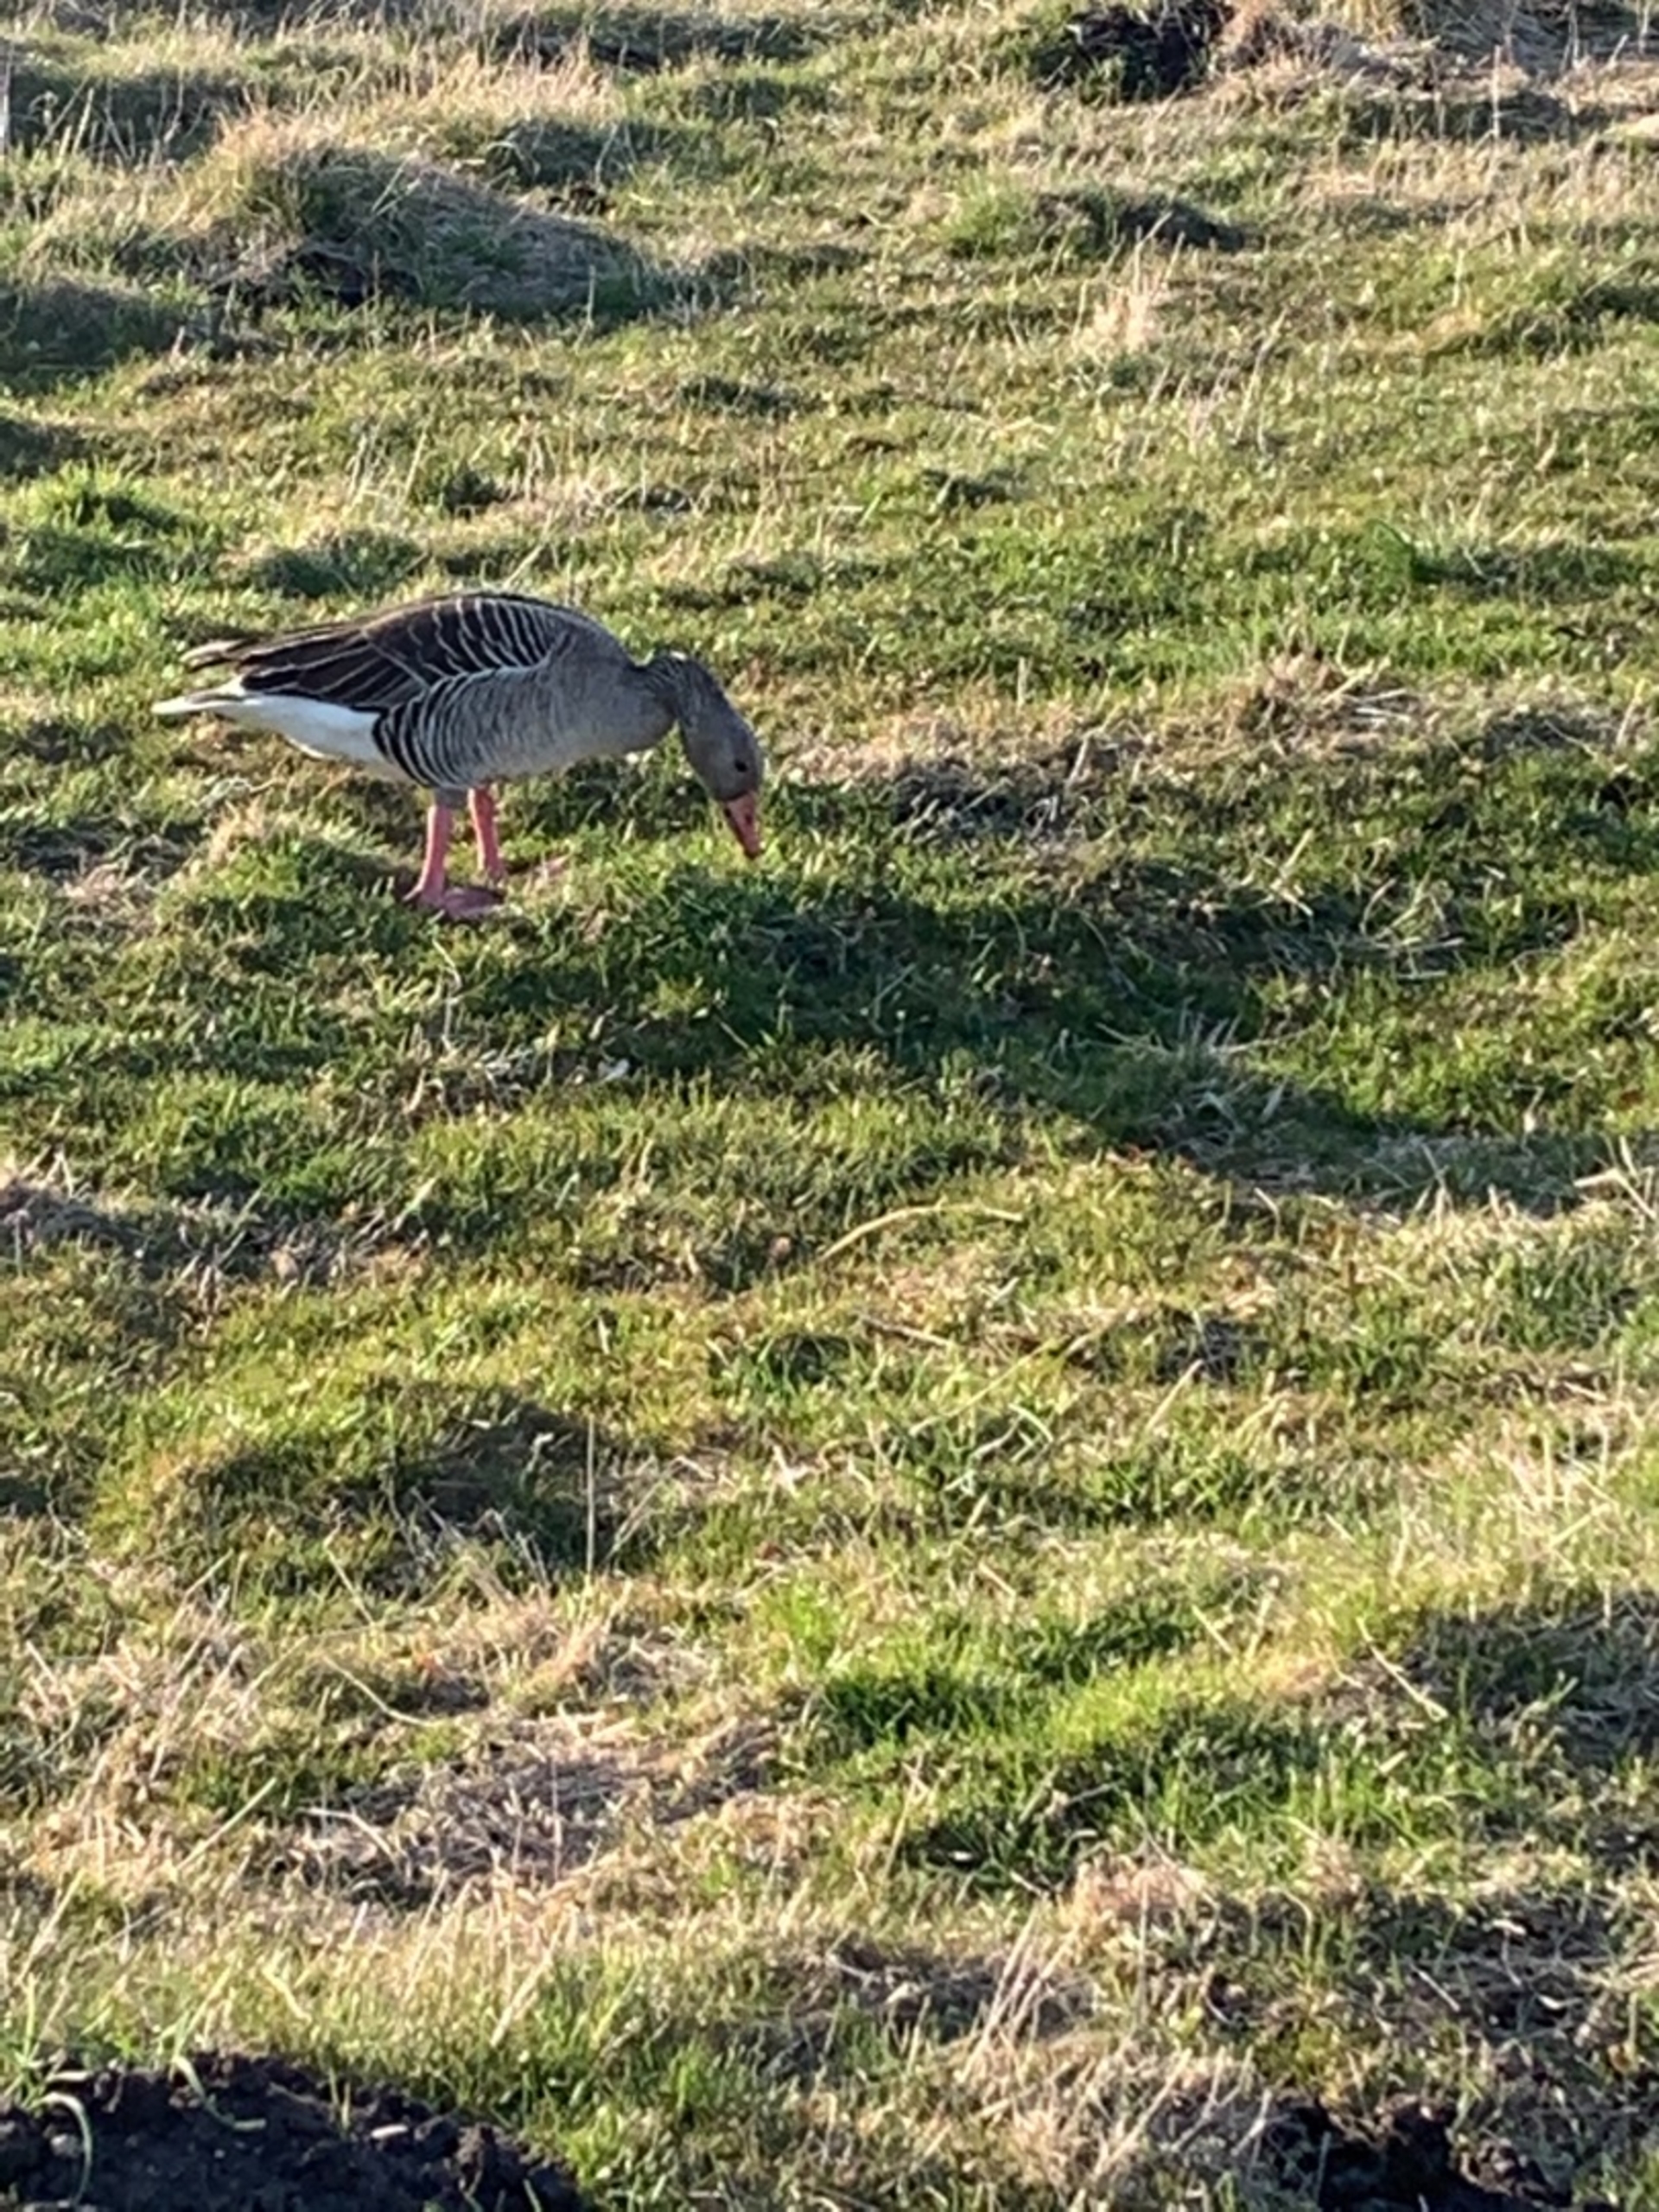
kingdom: Animalia
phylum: Chordata
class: Aves
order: Anseriformes
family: Anatidae
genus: Anser
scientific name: Anser anser
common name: Grågås
